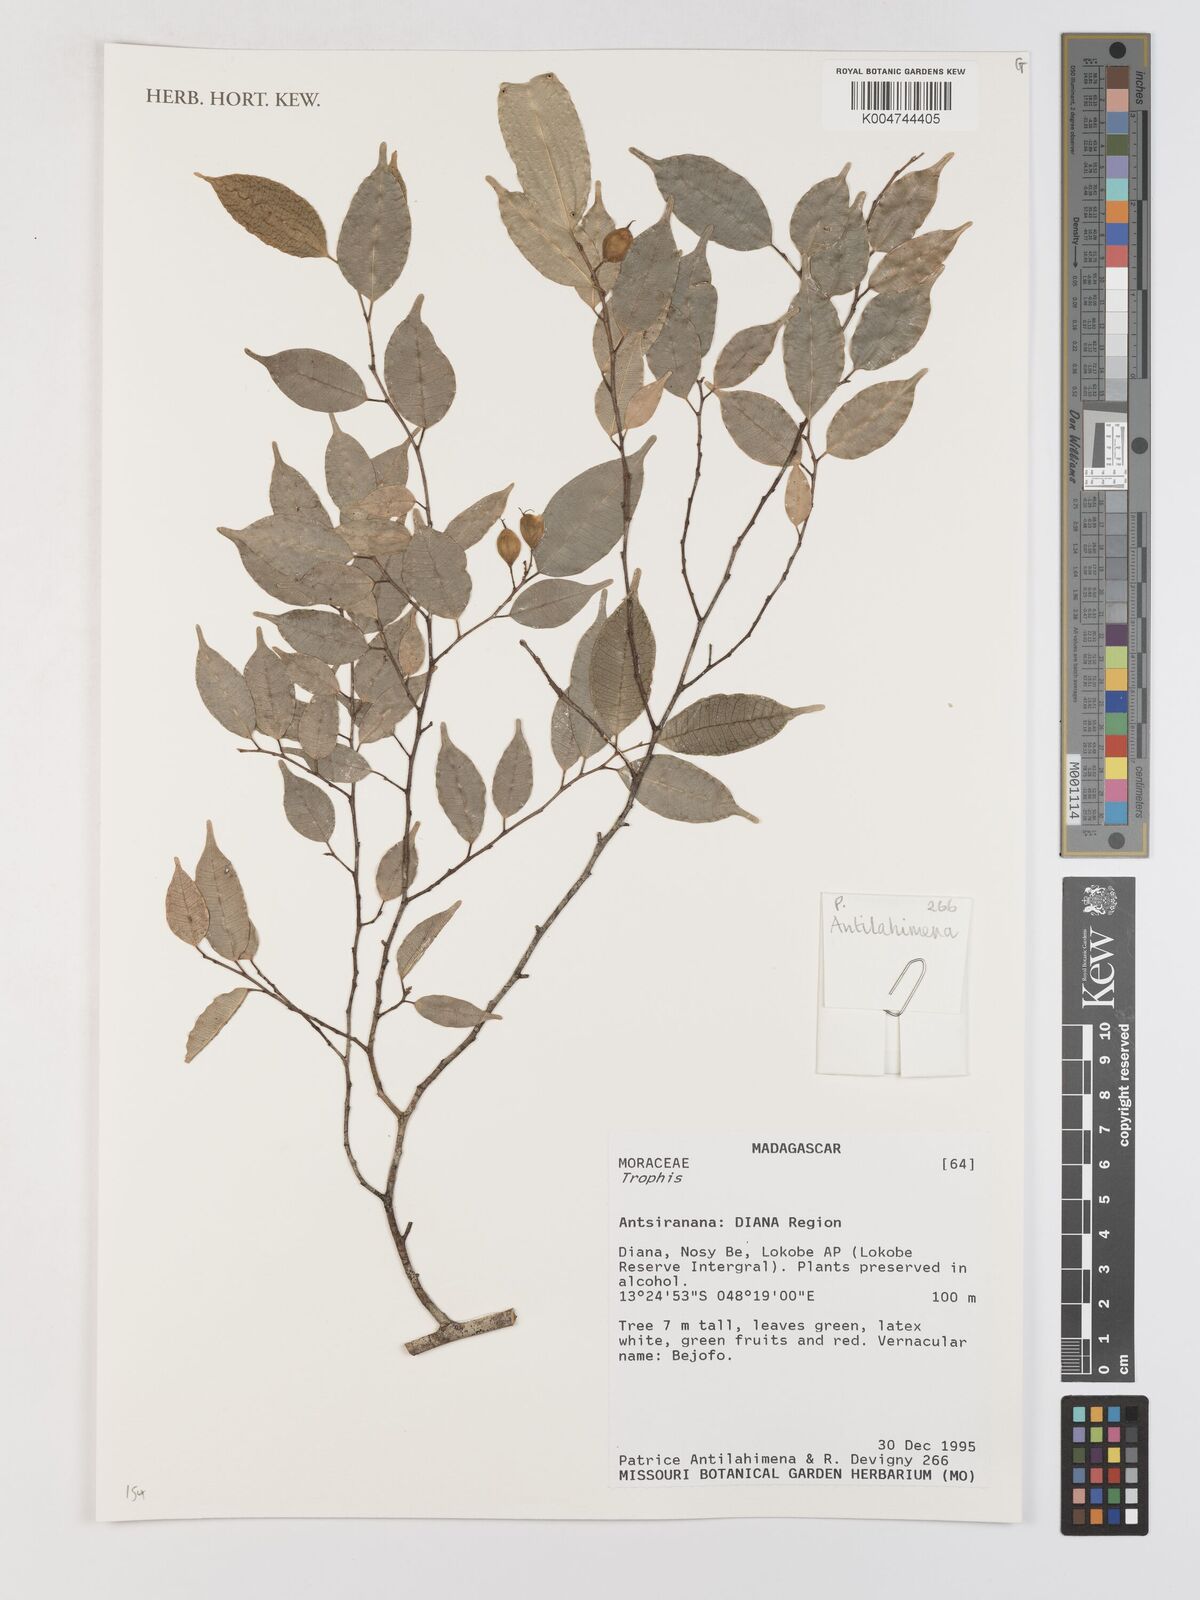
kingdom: Plantae
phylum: Tracheophyta
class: Magnoliopsida
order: Rosales
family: Moraceae
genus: Trophis
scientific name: Trophis
